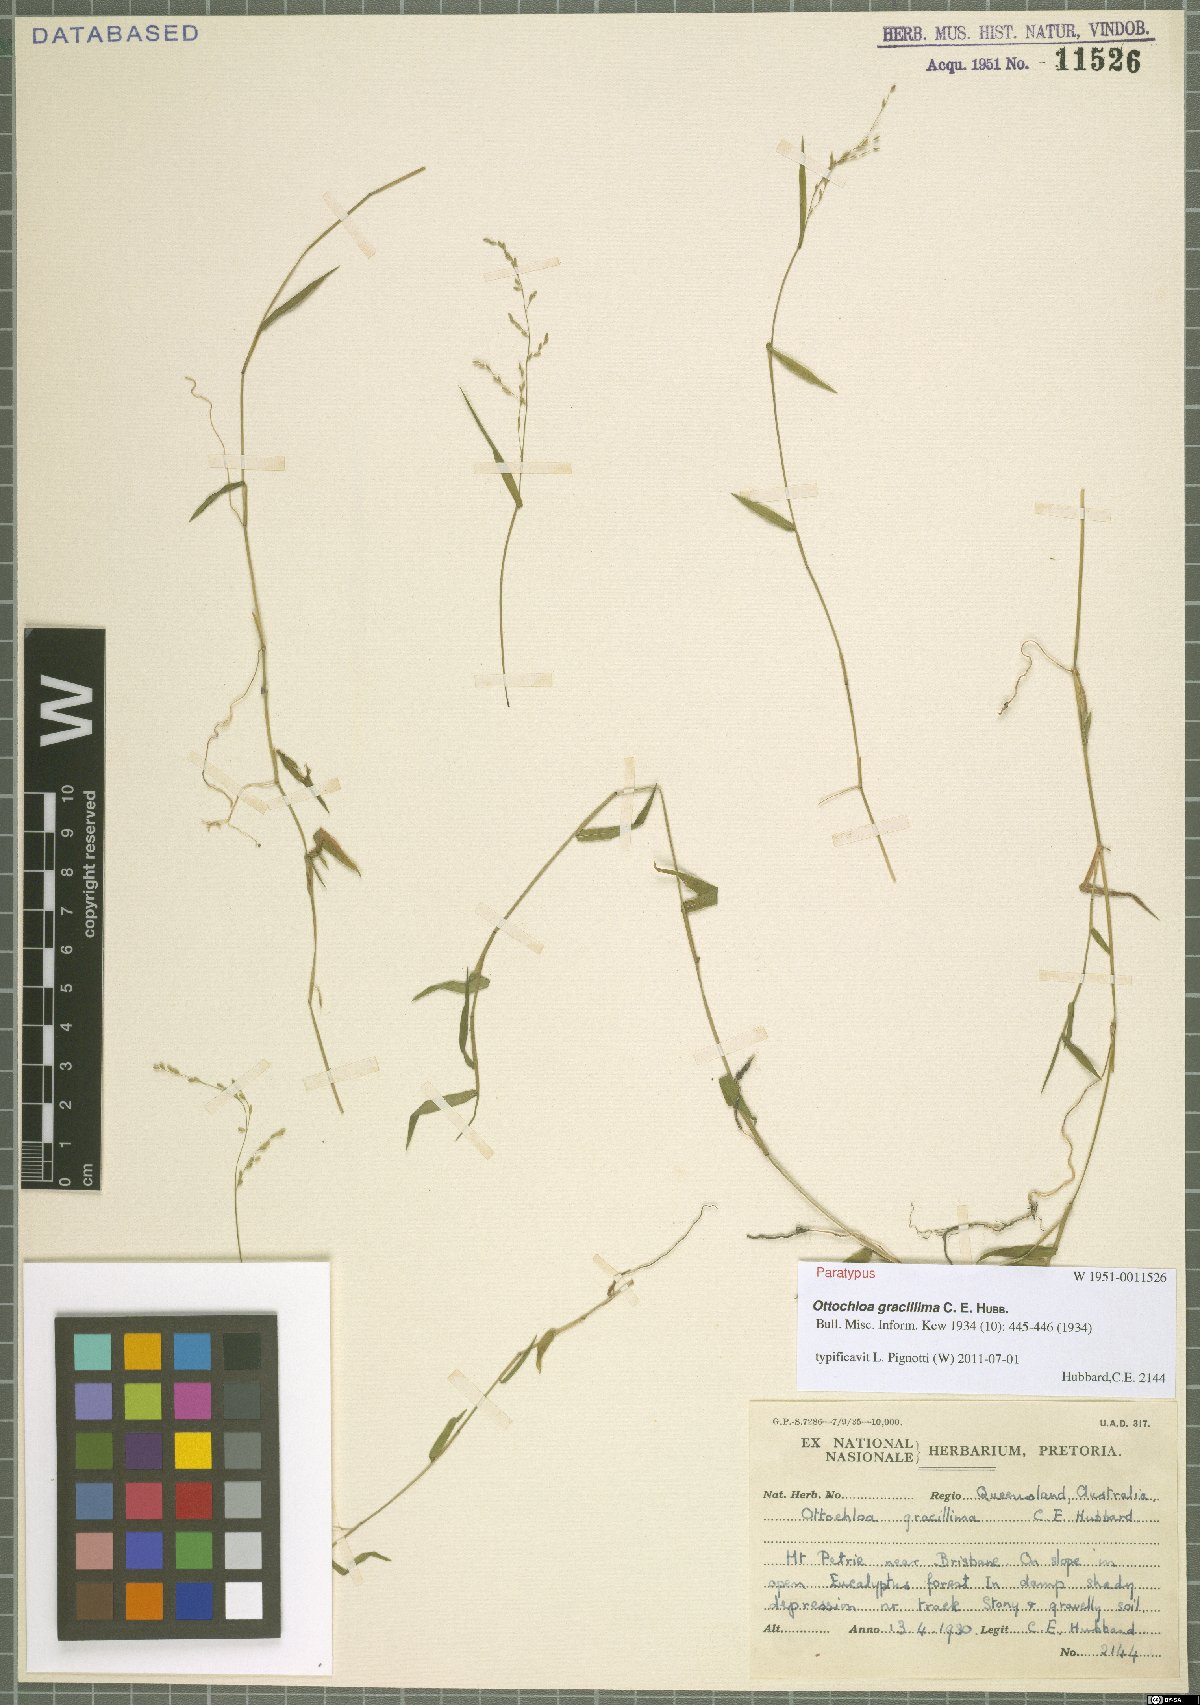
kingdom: Plantae
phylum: Tracheophyta
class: Liliopsida
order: Poales
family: Poaceae
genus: Ottochloa
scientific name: Ottochloa gracillima
